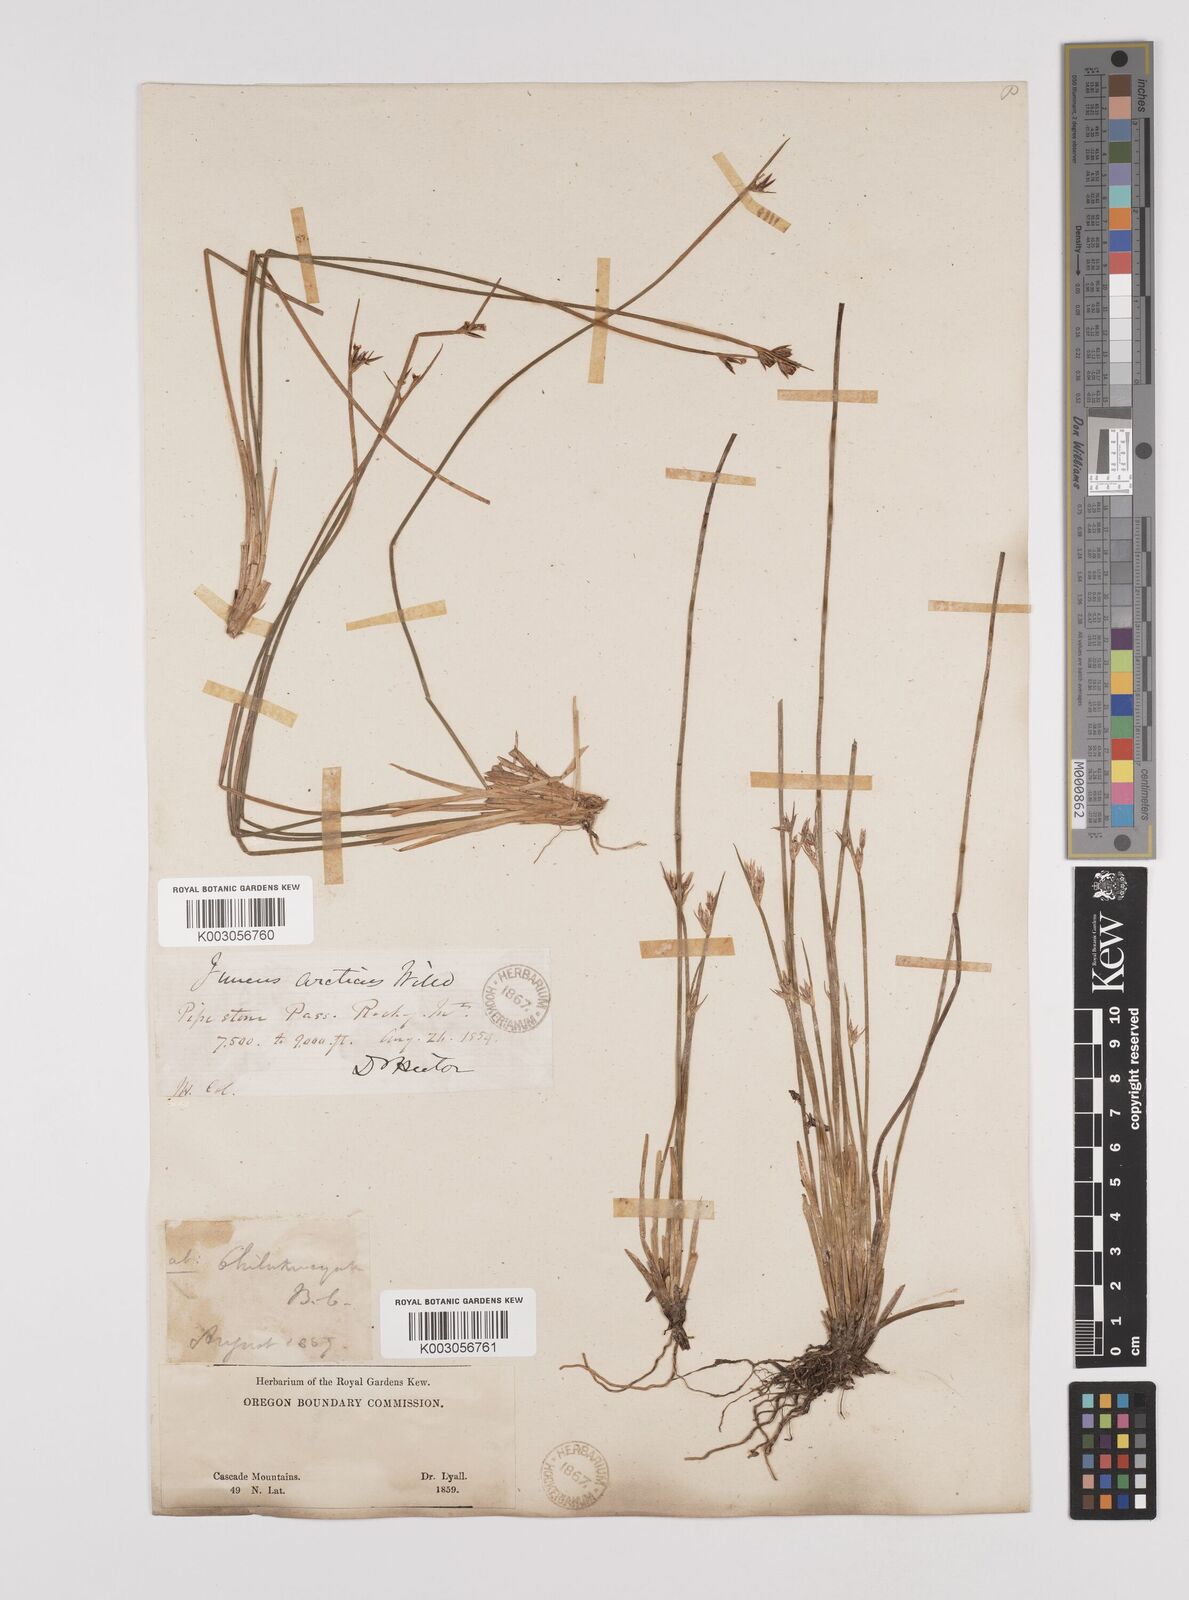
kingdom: Plantae
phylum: Tracheophyta
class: Liliopsida
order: Poales
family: Juncaceae
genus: Juncus
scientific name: Juncus drummondii
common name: Drummond's rush
